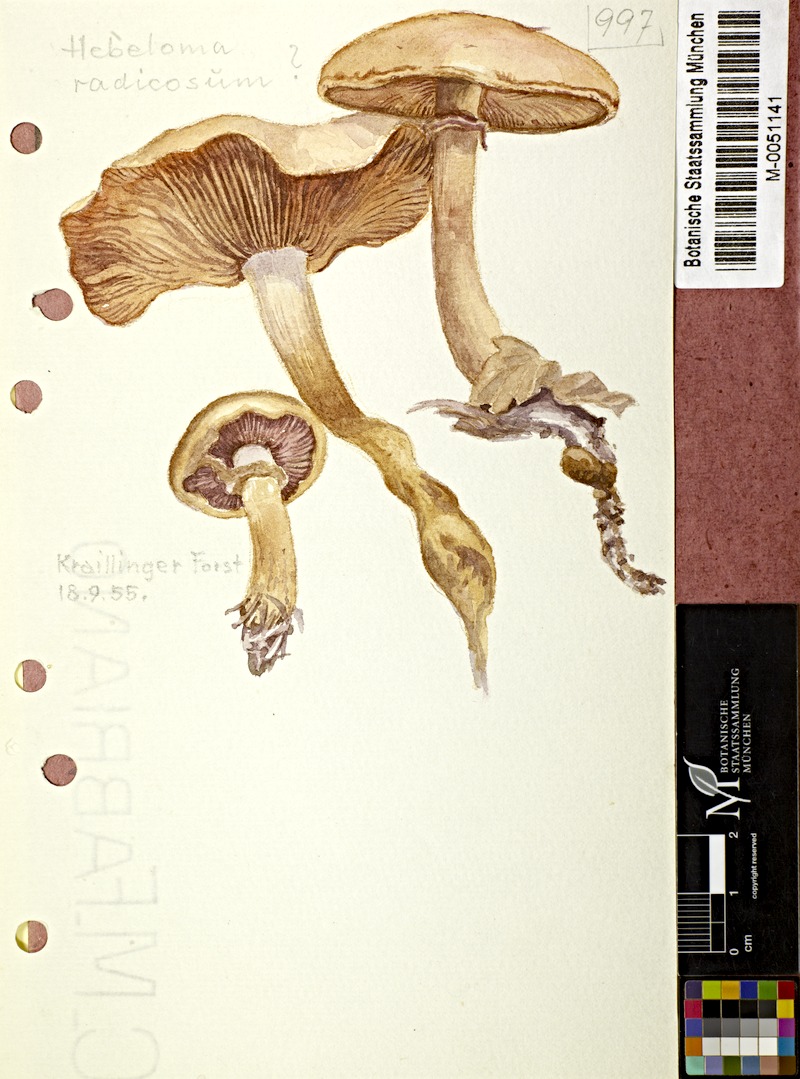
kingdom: Fungi
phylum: Basidiomycota
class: Agaricomycetes
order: Agaricales
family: Hymenogastraceae
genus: Hebeloma
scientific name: Hebeloma radicosum
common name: Rooting poisonpie
